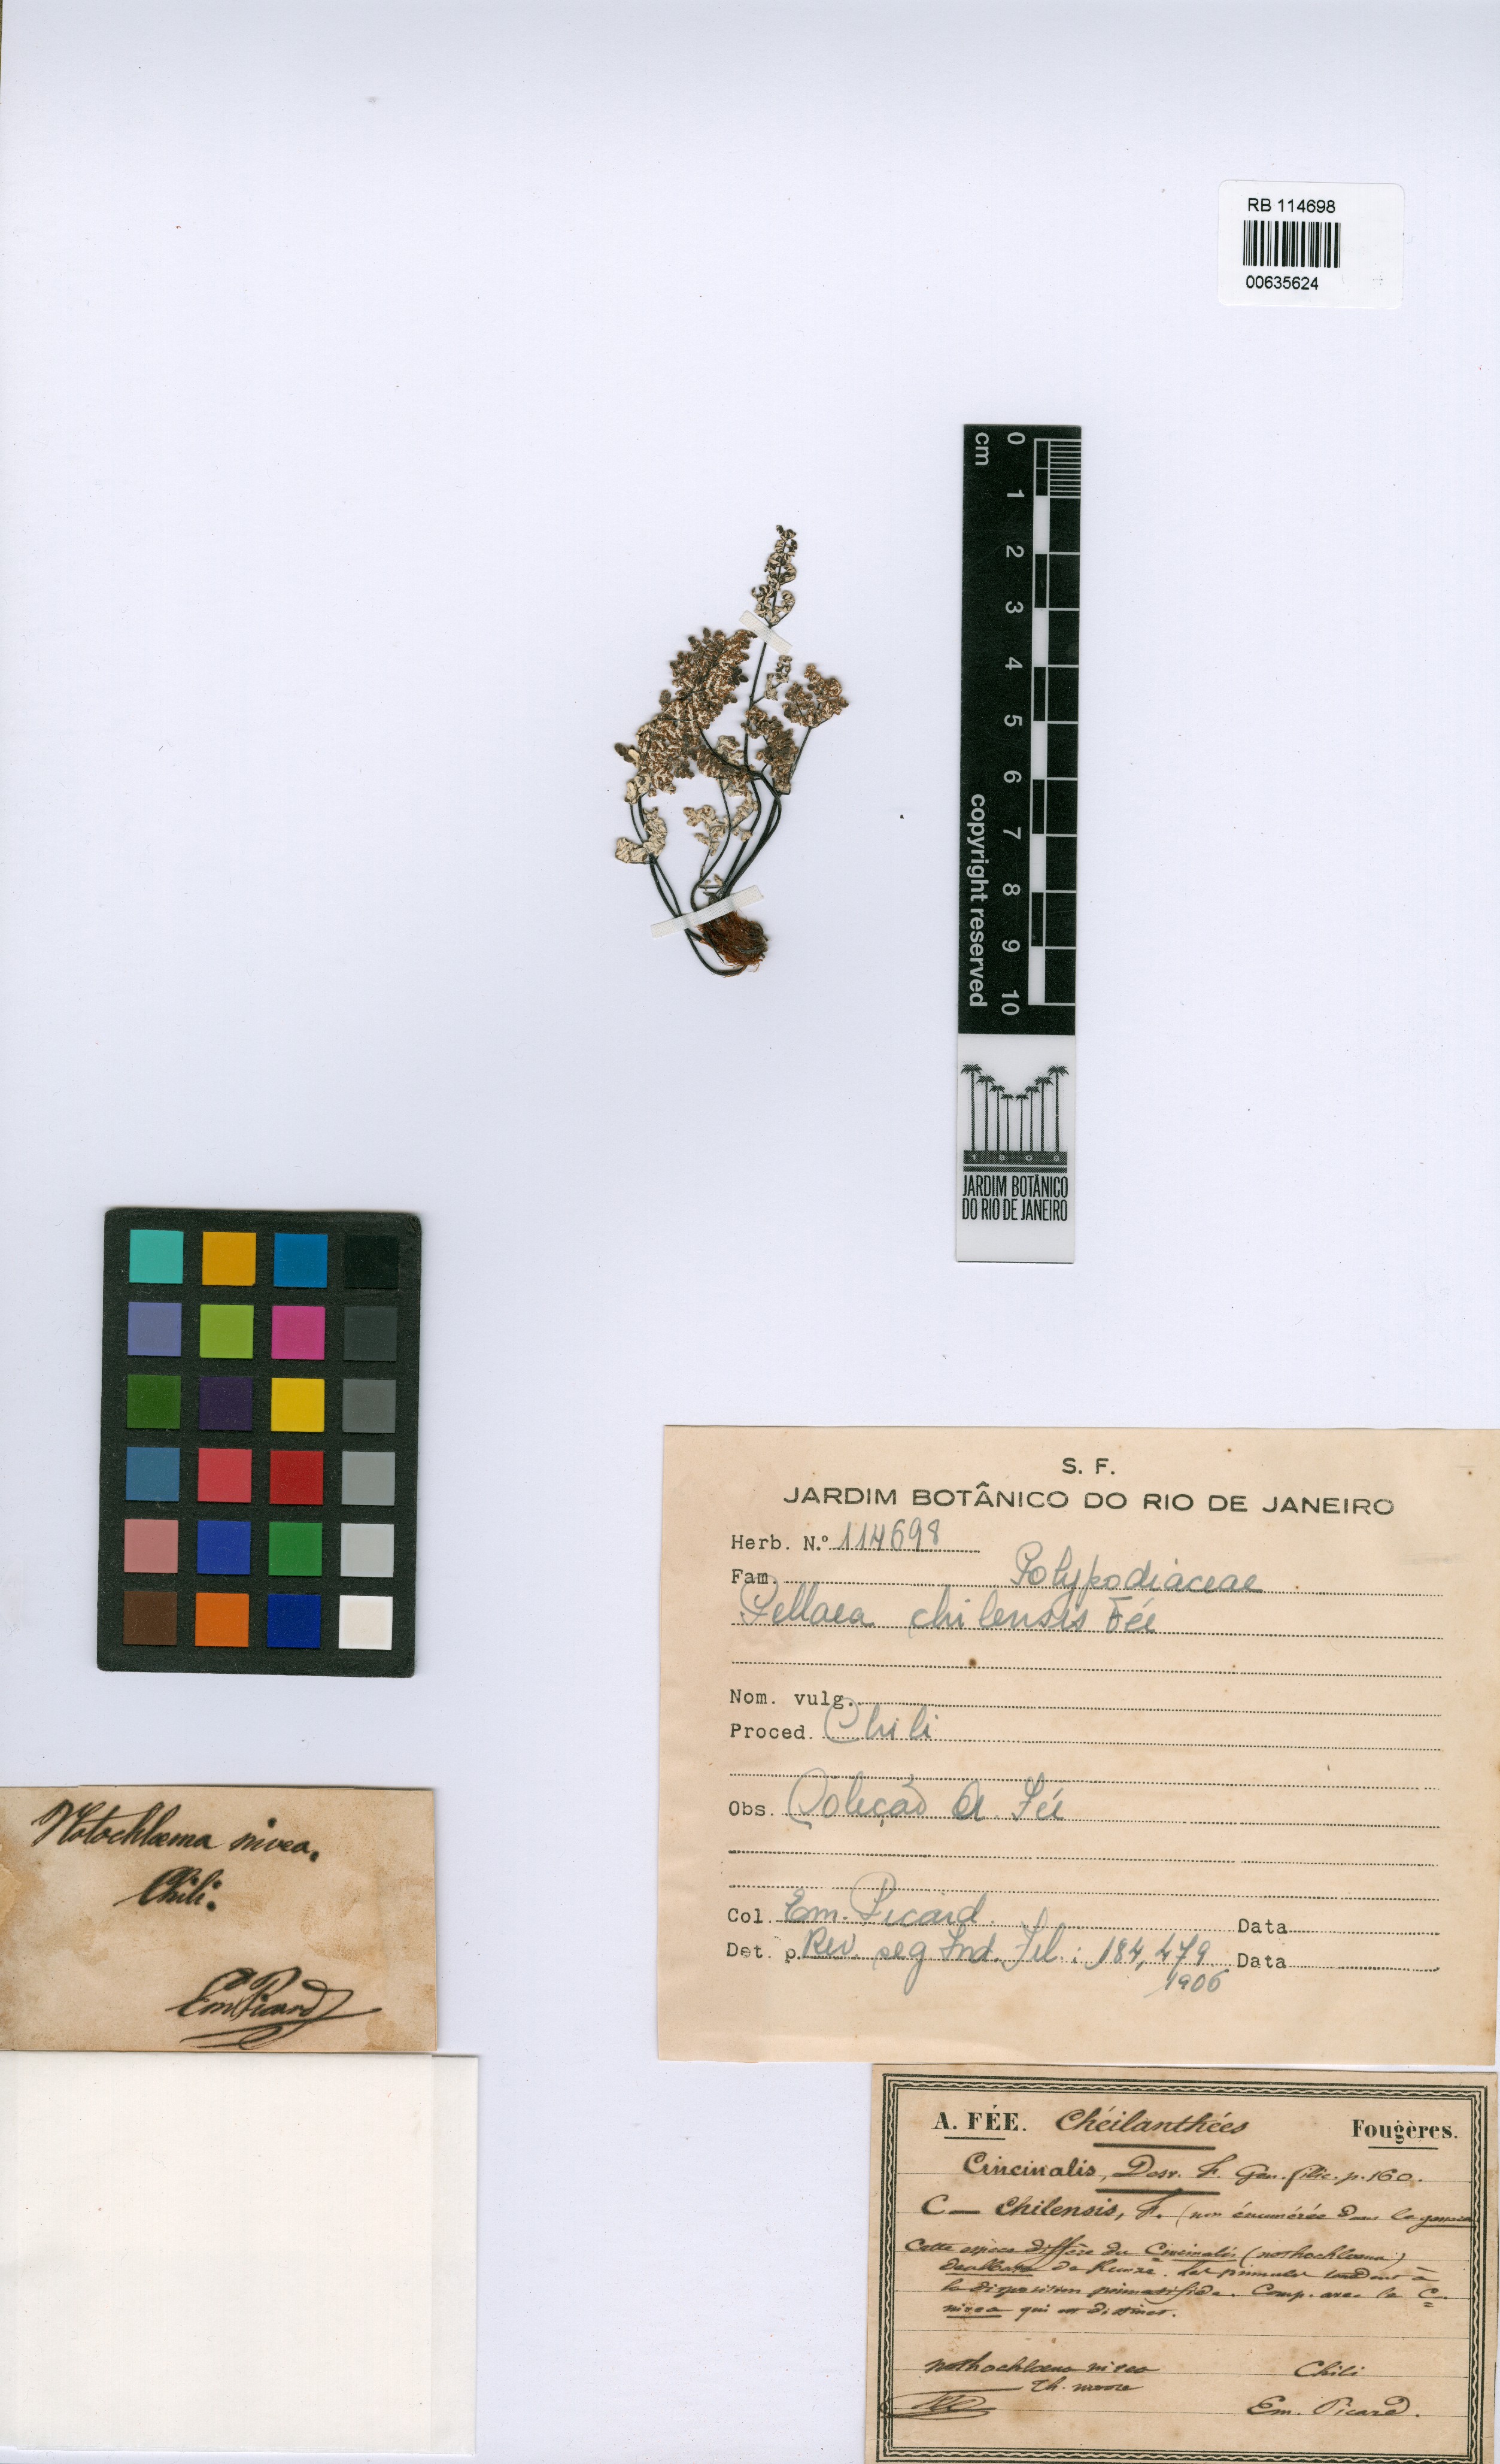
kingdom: Plantae
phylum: Tracheophyta
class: Polypodiopsida
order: Polypodiales
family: Pteridaceae
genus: Argyrochosma
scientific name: Argyrochosma chilensis
